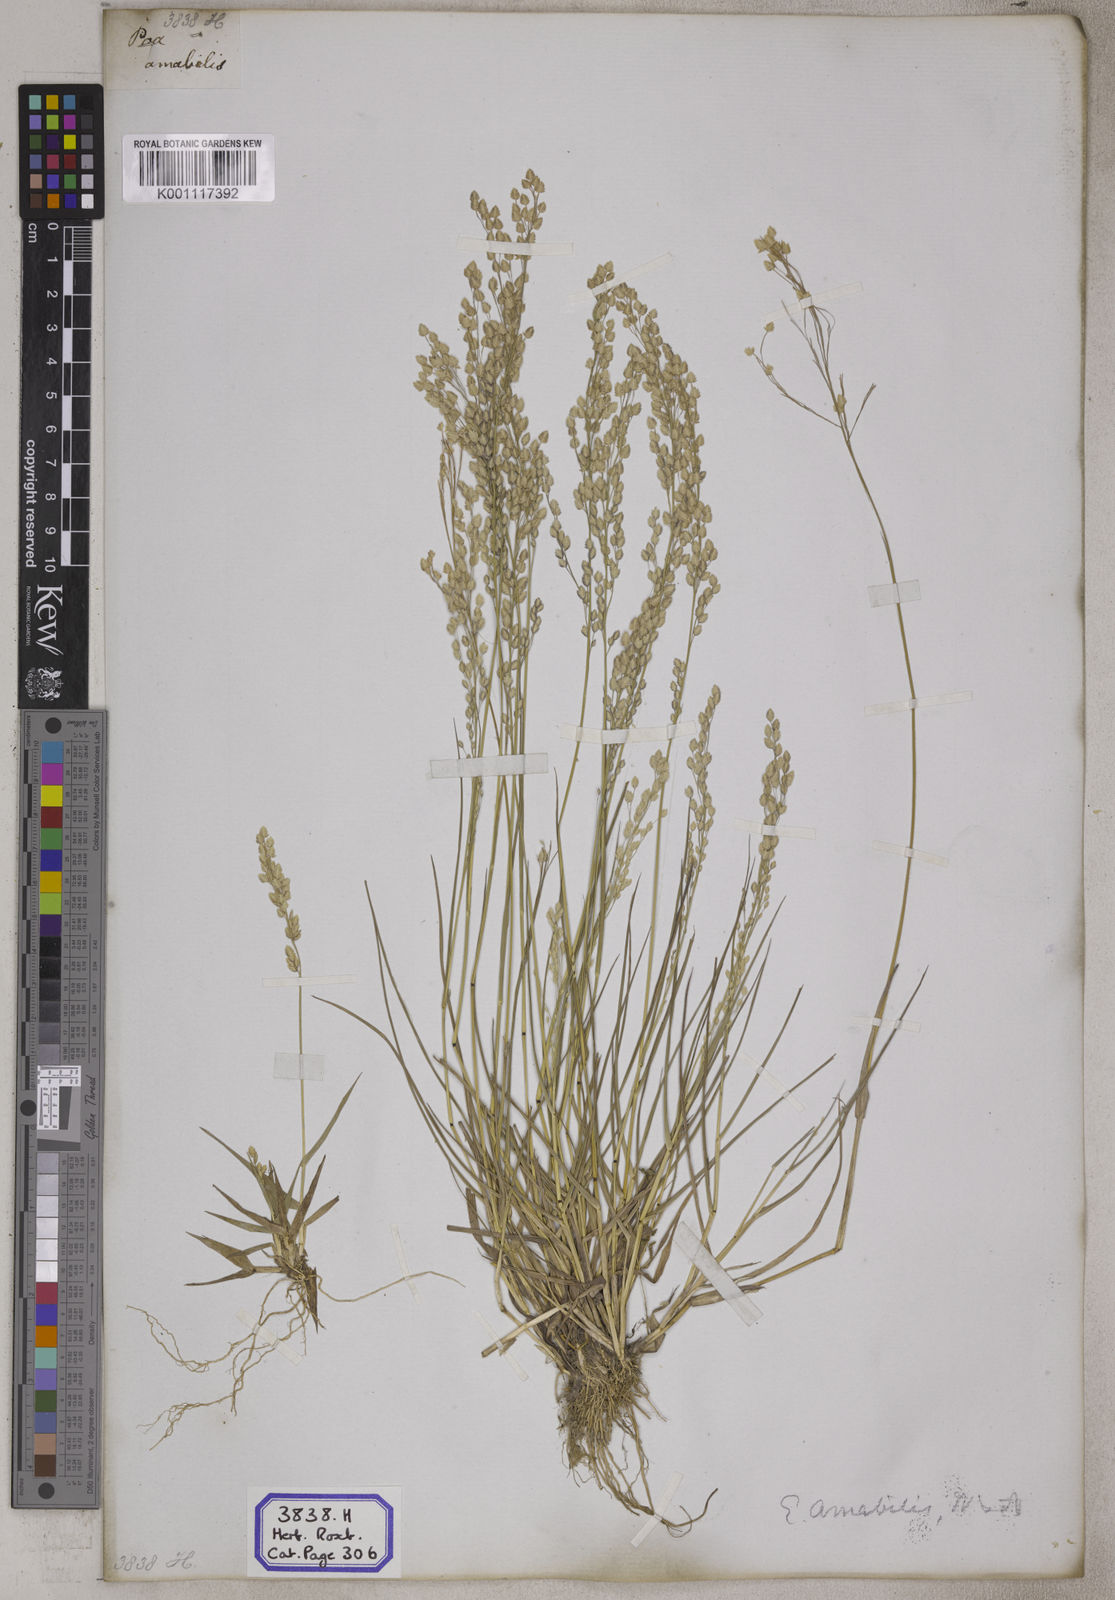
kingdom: Plantae
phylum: Tracheophyta
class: Liliopsida
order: Poales
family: Poaceae
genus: Eragrostis
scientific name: Eragrostis
